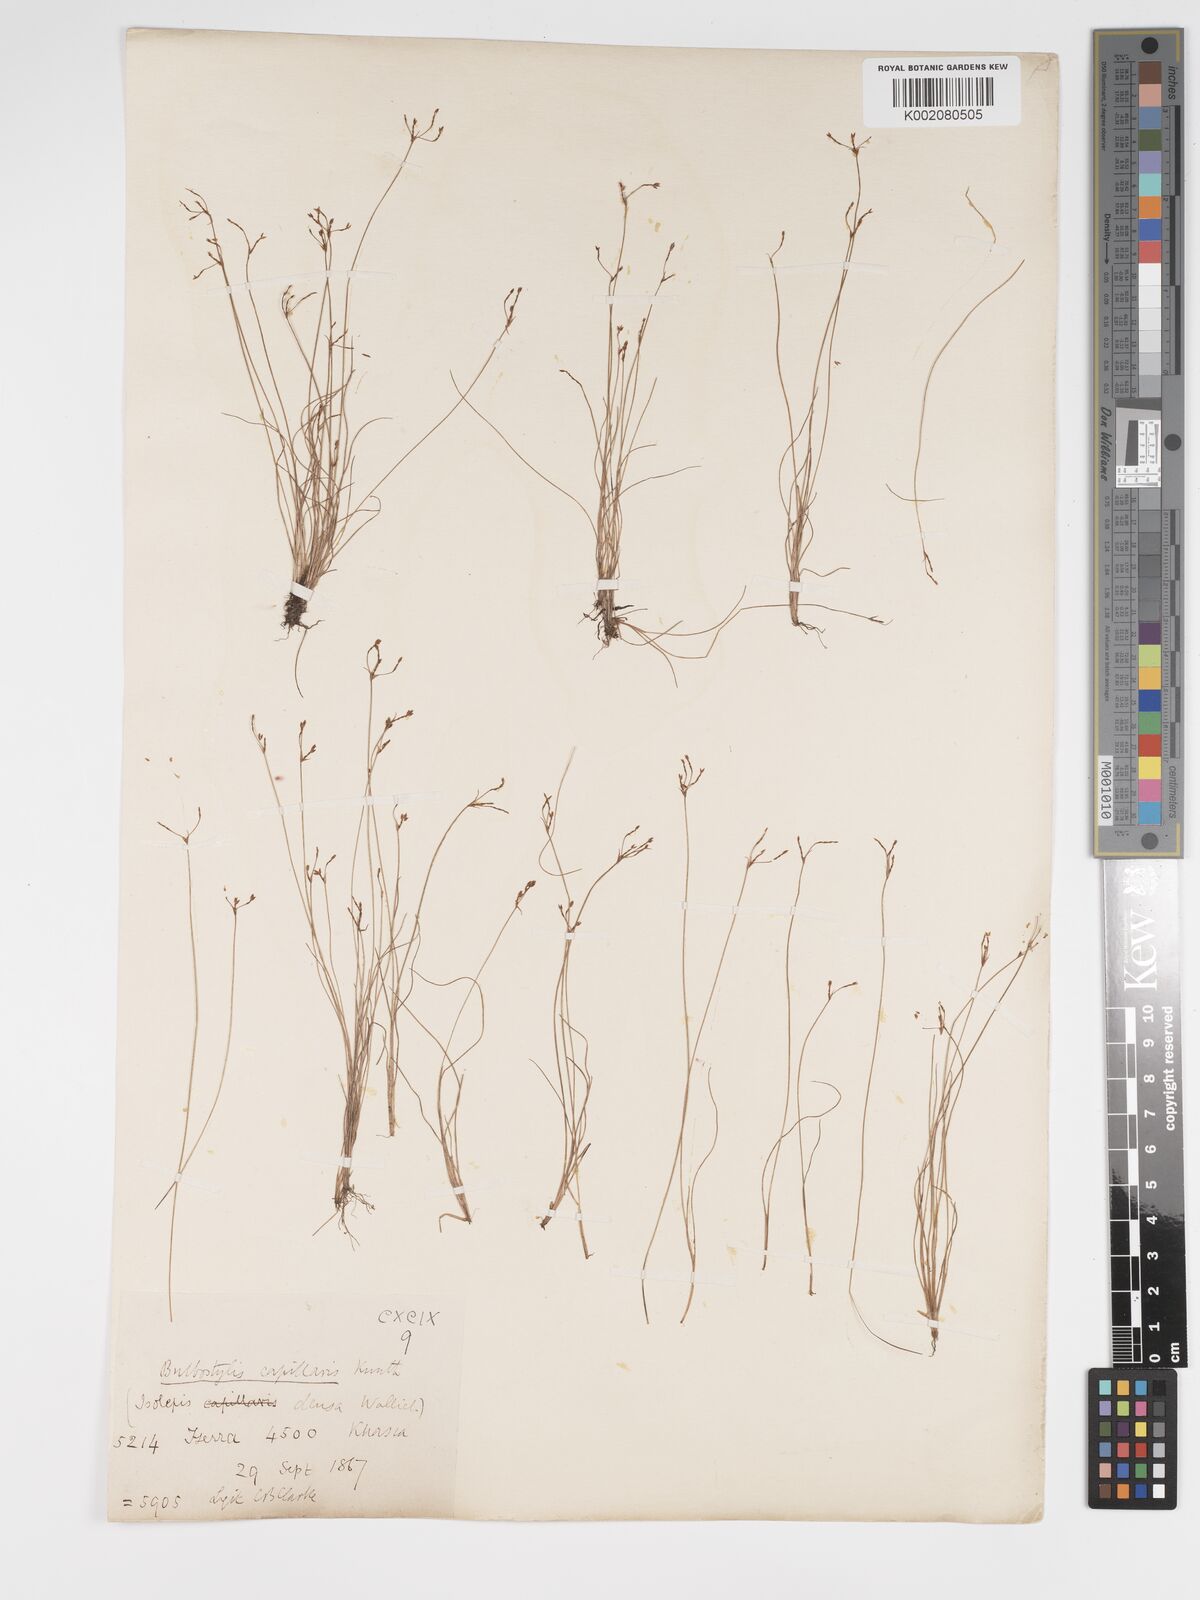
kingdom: Plantae
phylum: Tracheophyta
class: Liliopsida
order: Poales
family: Cyperaceae
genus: Bulbostylis
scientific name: Bulbostylis capillaris
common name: Densetuft hairsedge
